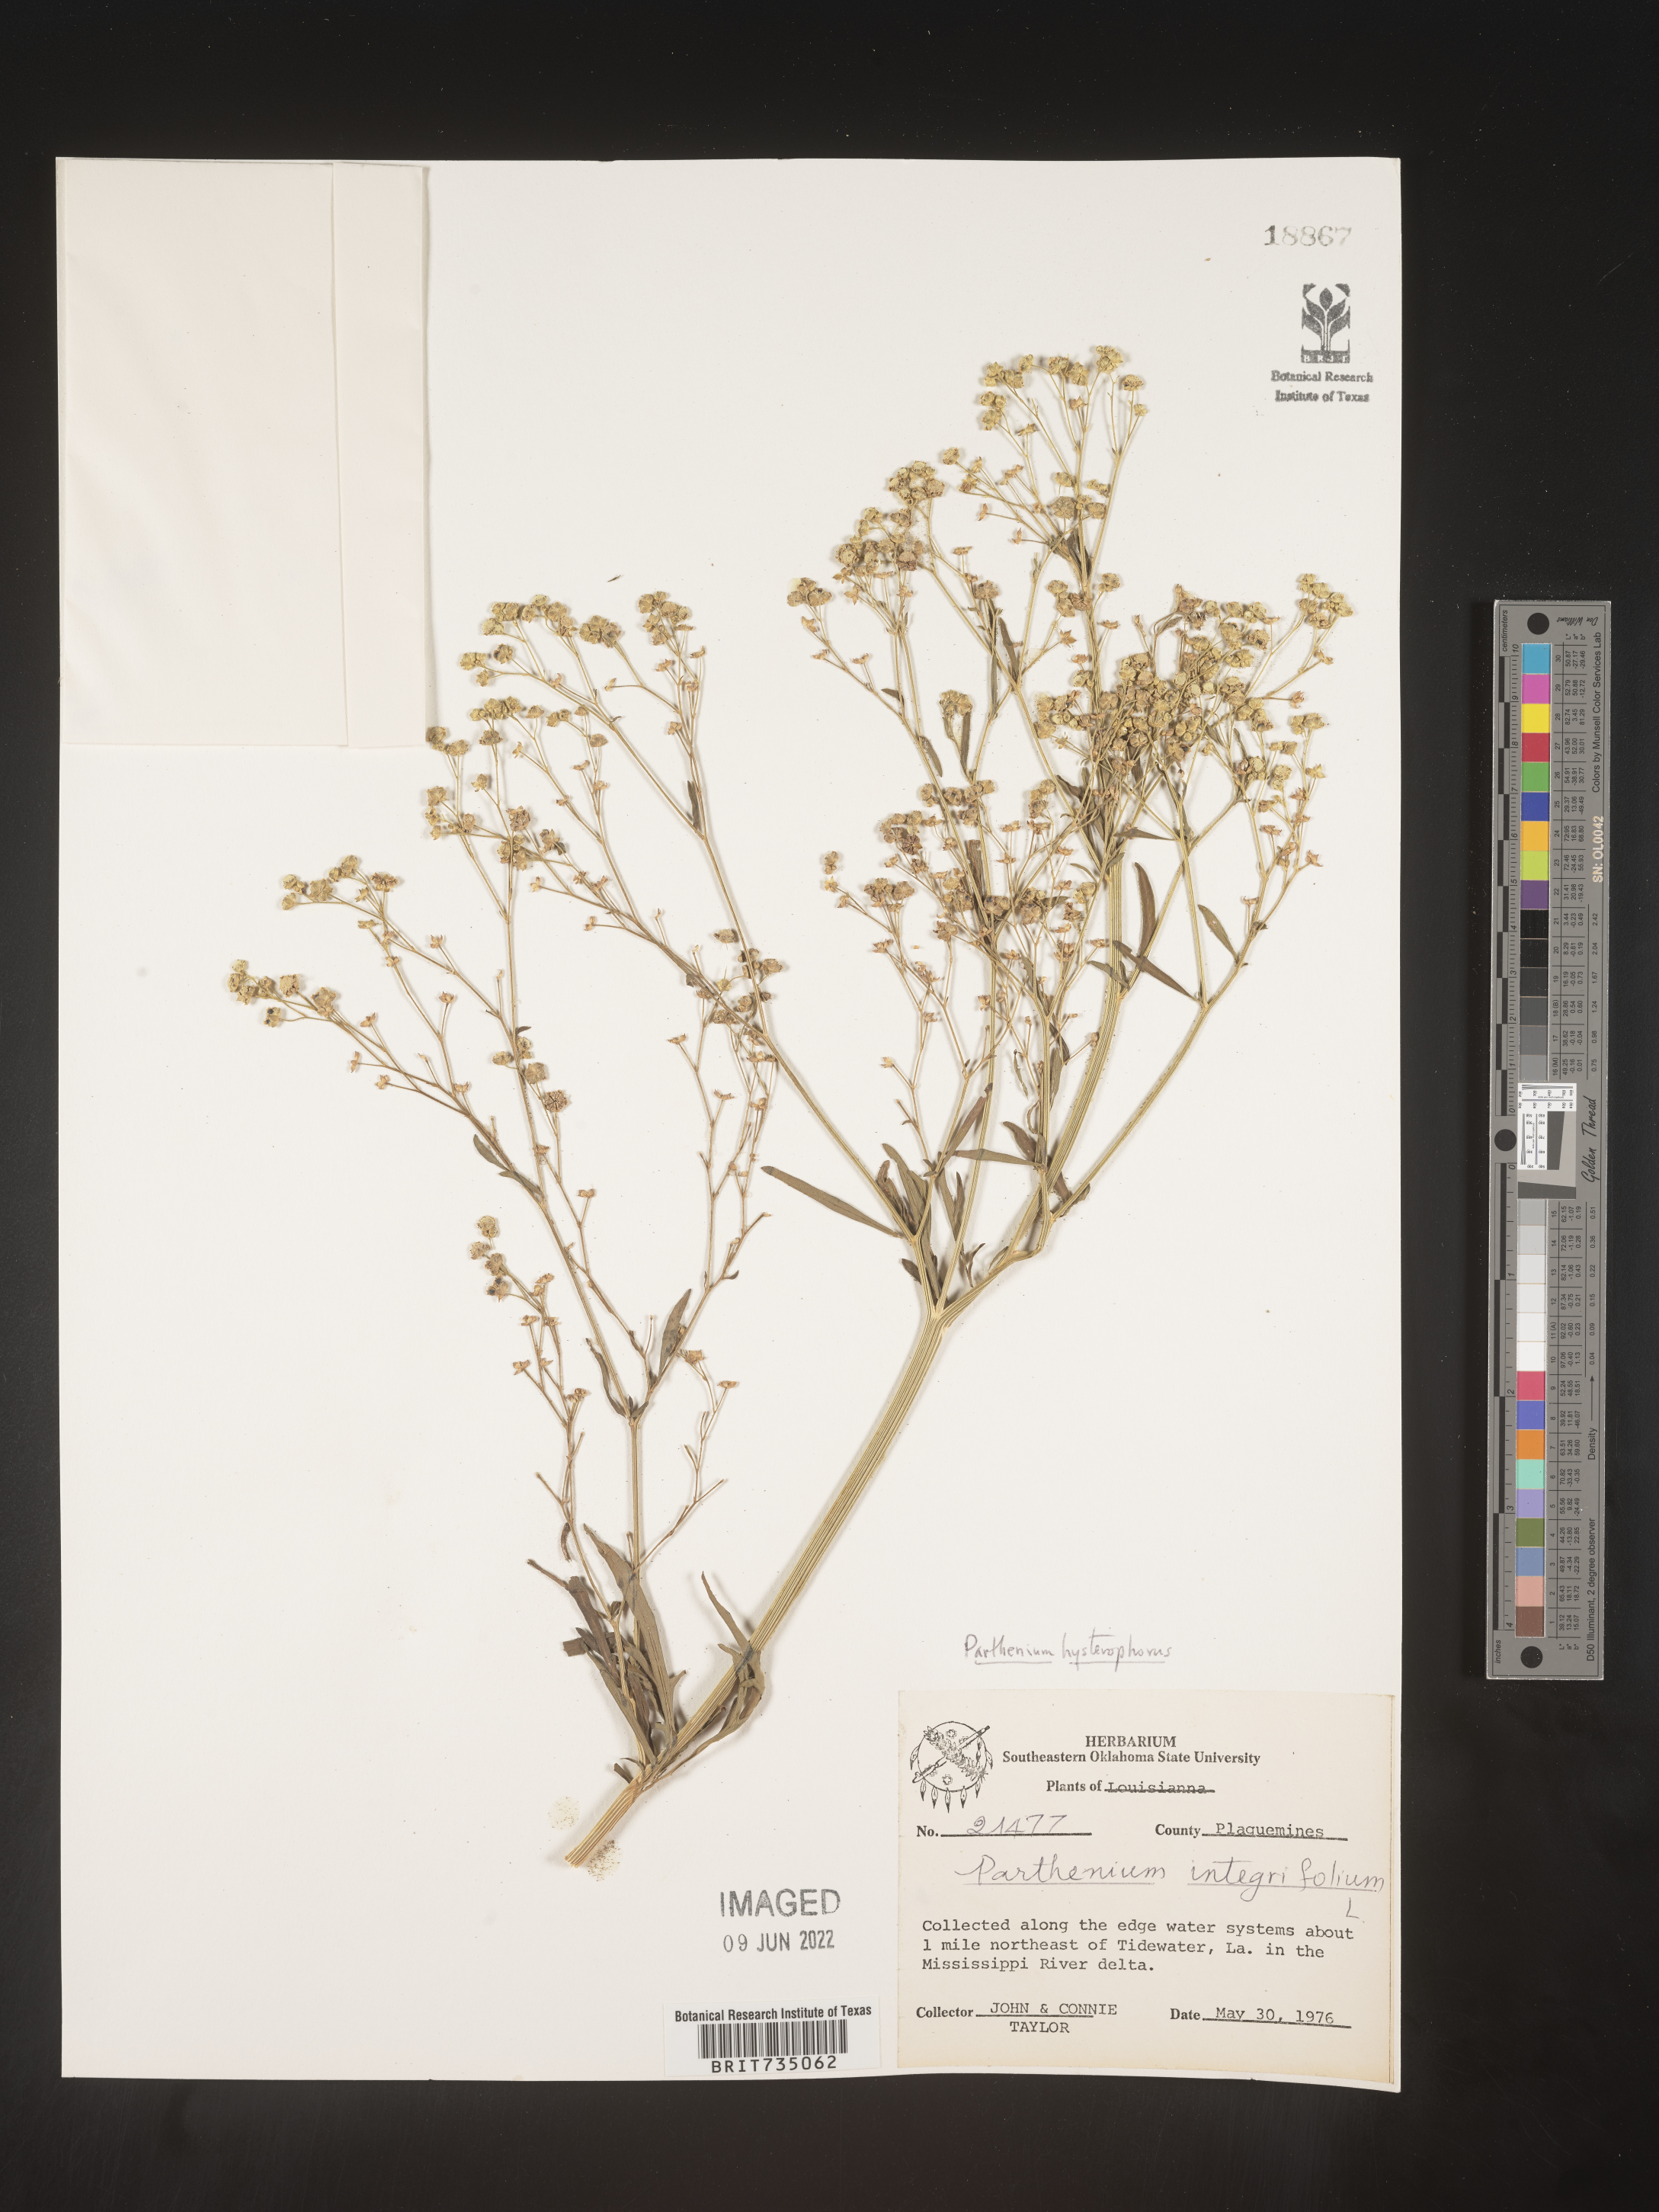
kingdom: Plantae
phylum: Tracheophyta
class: Magnoliopsida
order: Asterales
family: Asteraceae
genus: Parthenium
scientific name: Parthenium hysterophorus
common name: Santa maria feverfew
